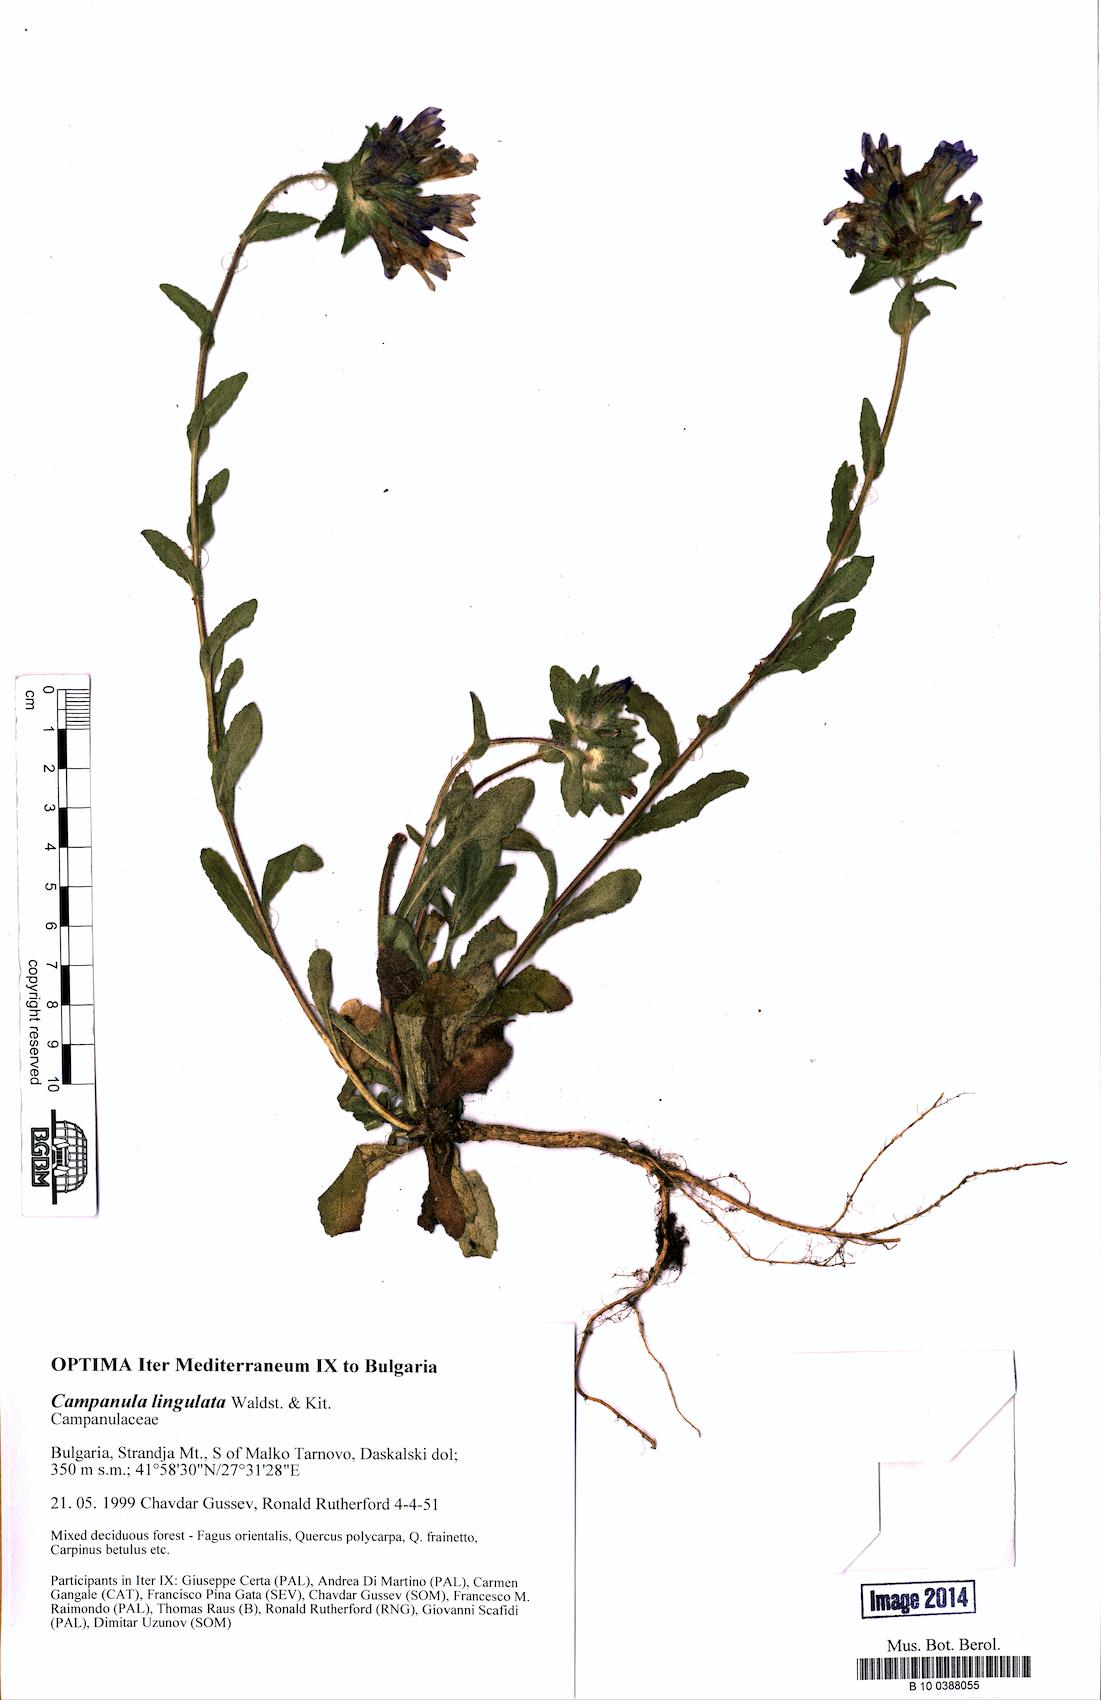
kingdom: Plantae
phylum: Tracheophyta
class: Magnoliopsida
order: Asterales
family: Campanulaceae
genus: Campanula
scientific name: Campanula lingulata
